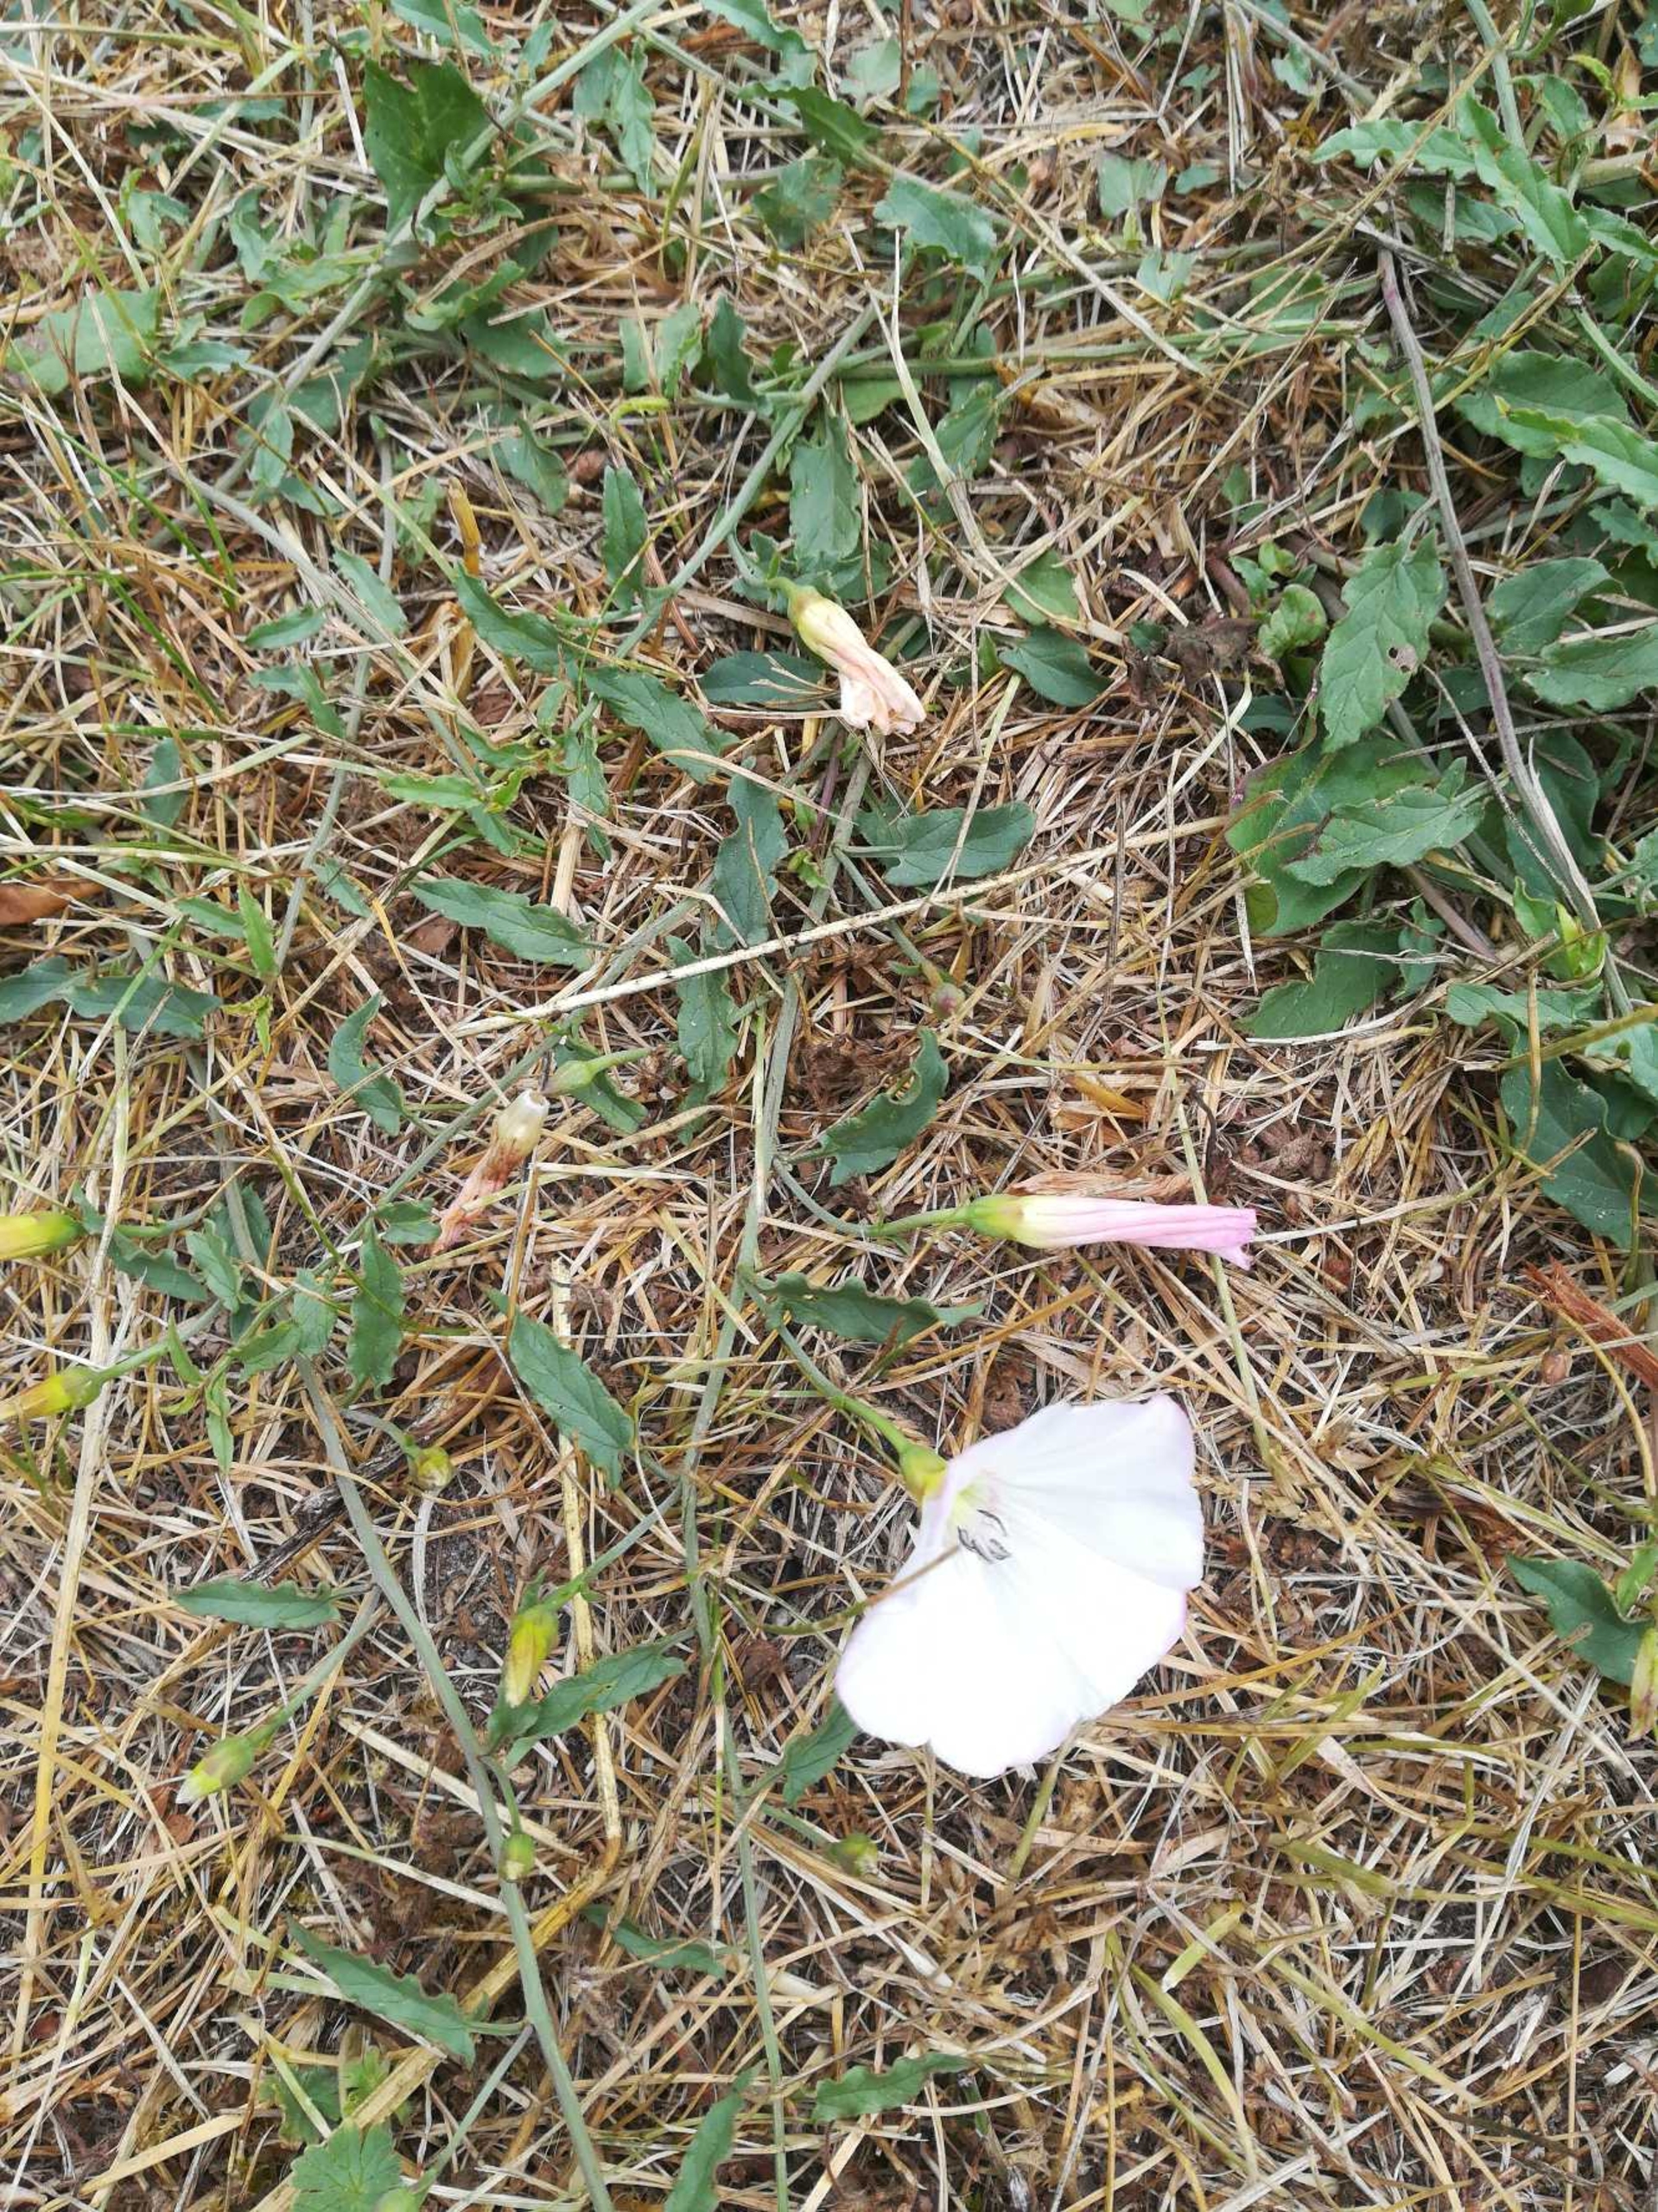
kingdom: Plantae
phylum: Tracheophyta
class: Magnoliopsida
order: Solanales
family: Convolvulaceae
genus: Convolvulus
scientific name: Convolvulus arvensis
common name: Ager-snerle
